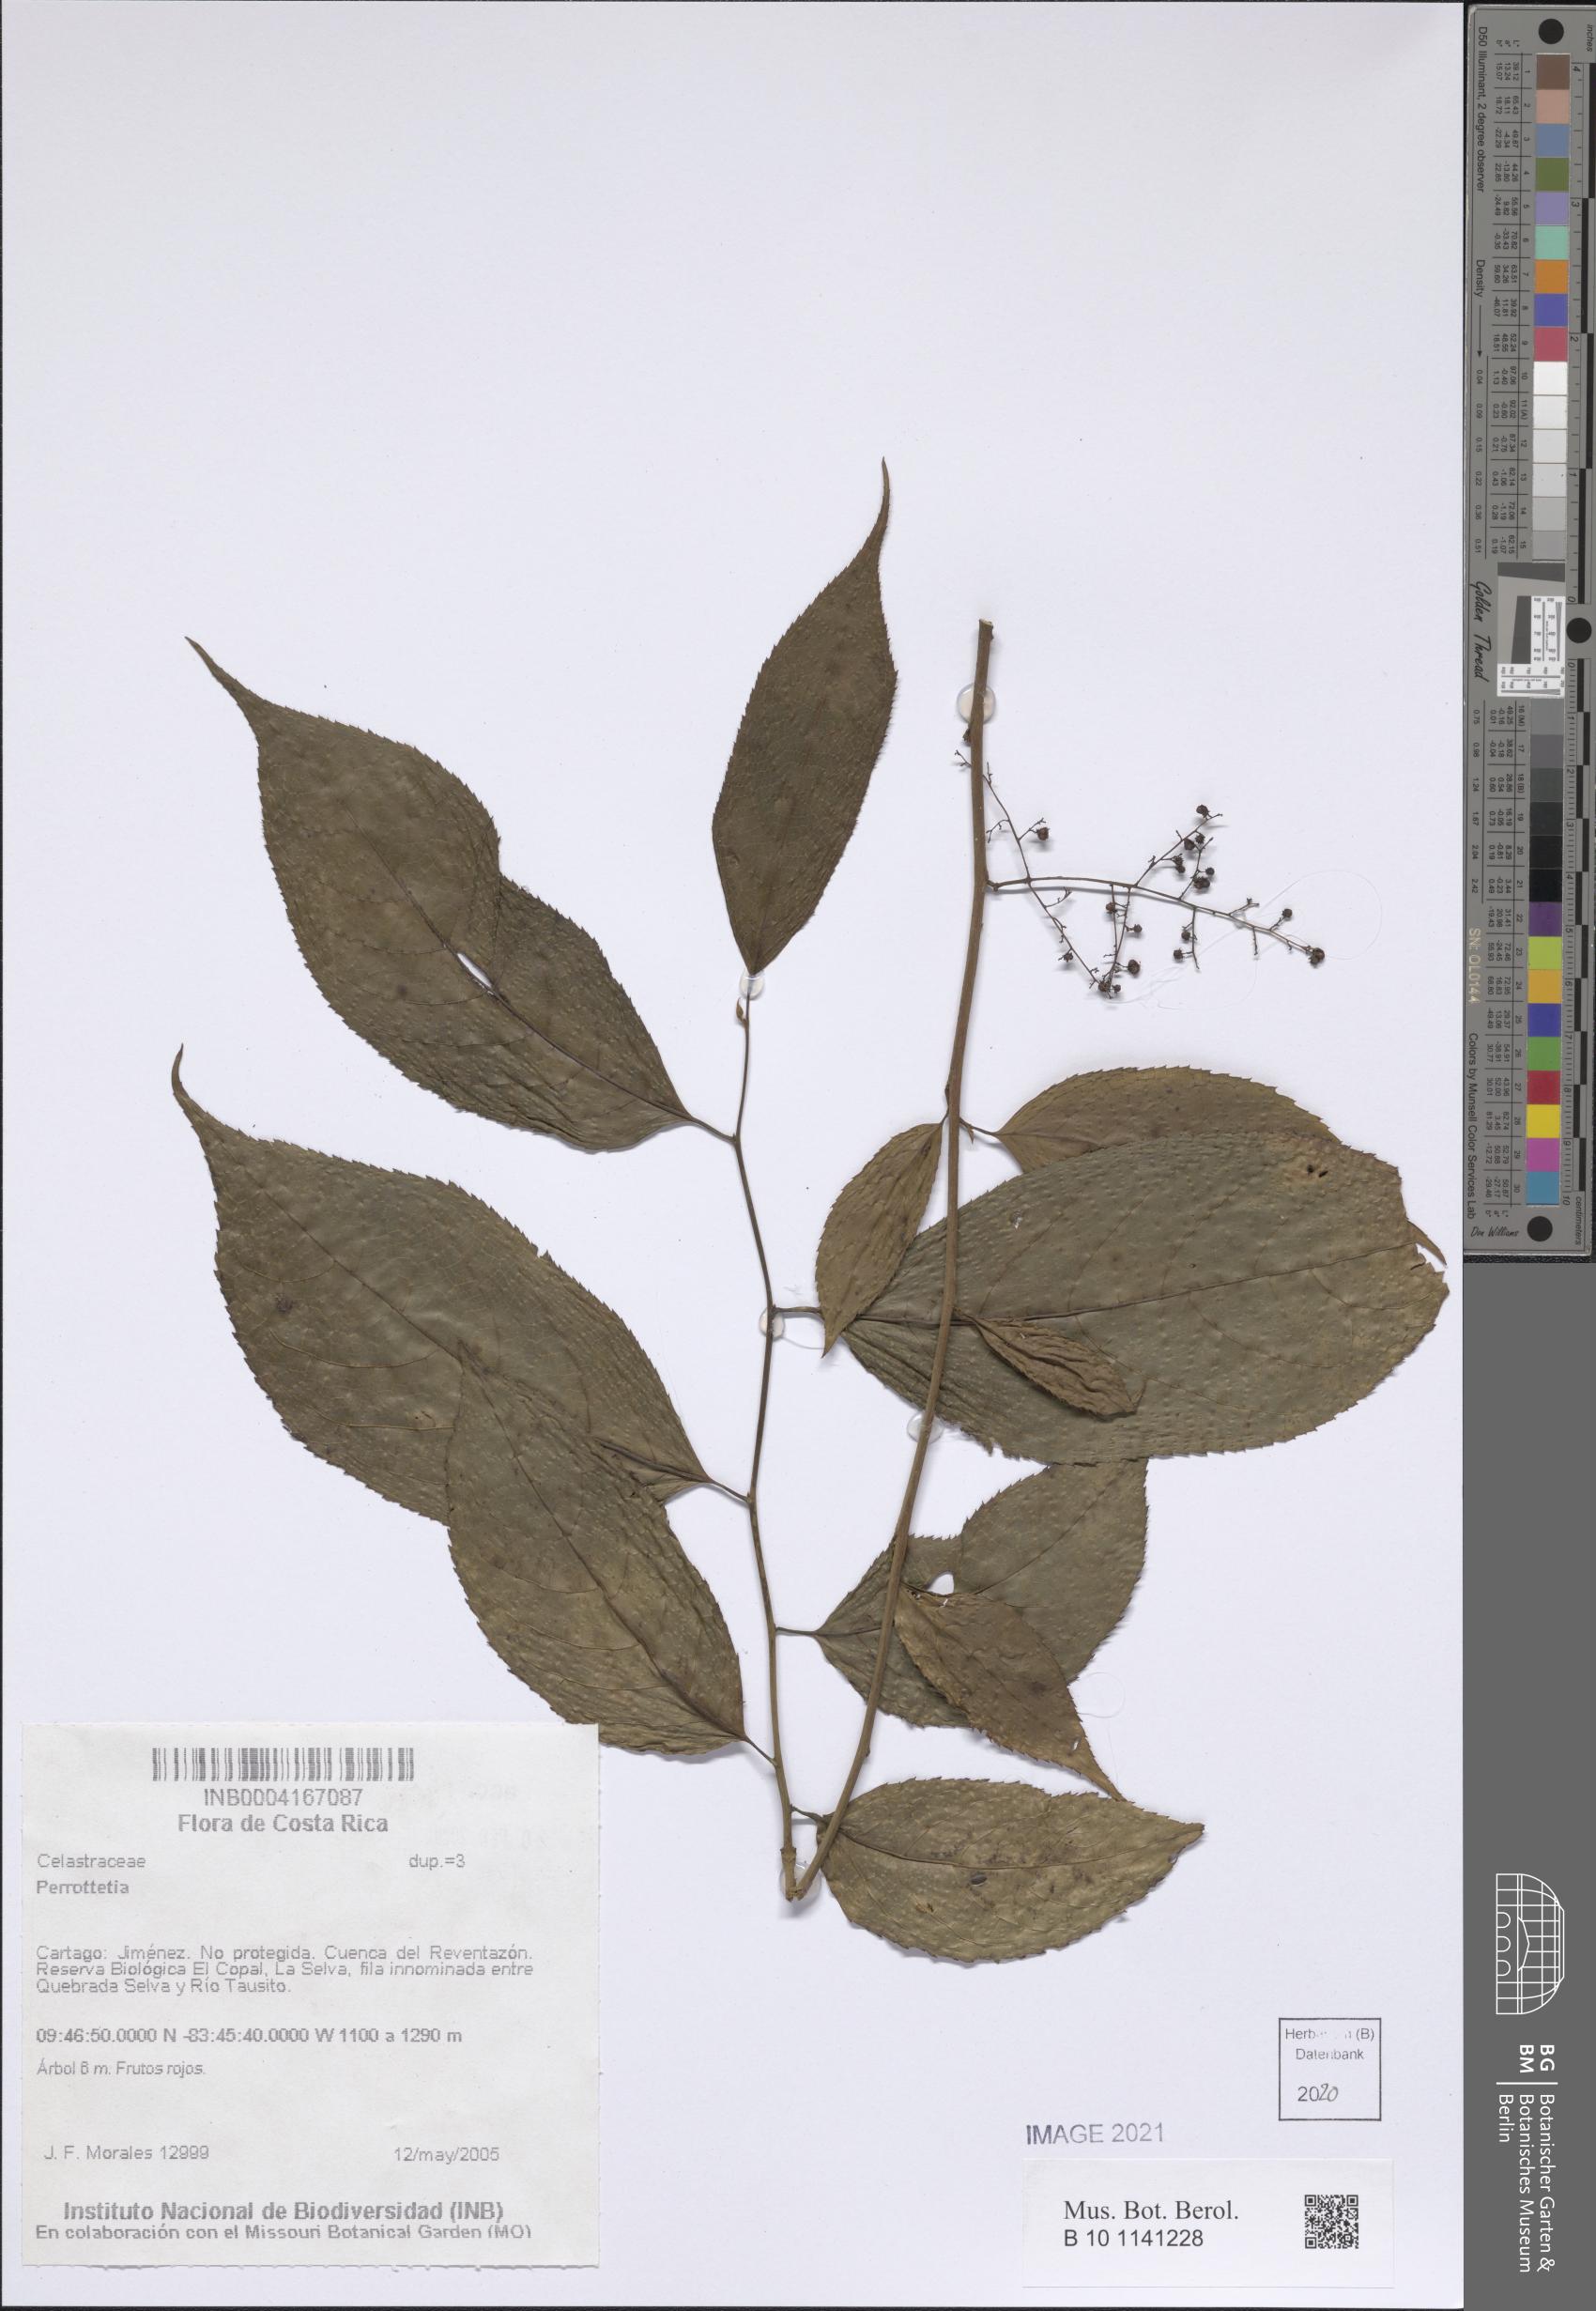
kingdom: Plantae
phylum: Tracheophyta
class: Magnoliopsida
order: Celastrales
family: Celastraceae
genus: Perrotettia
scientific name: Perrotettia
